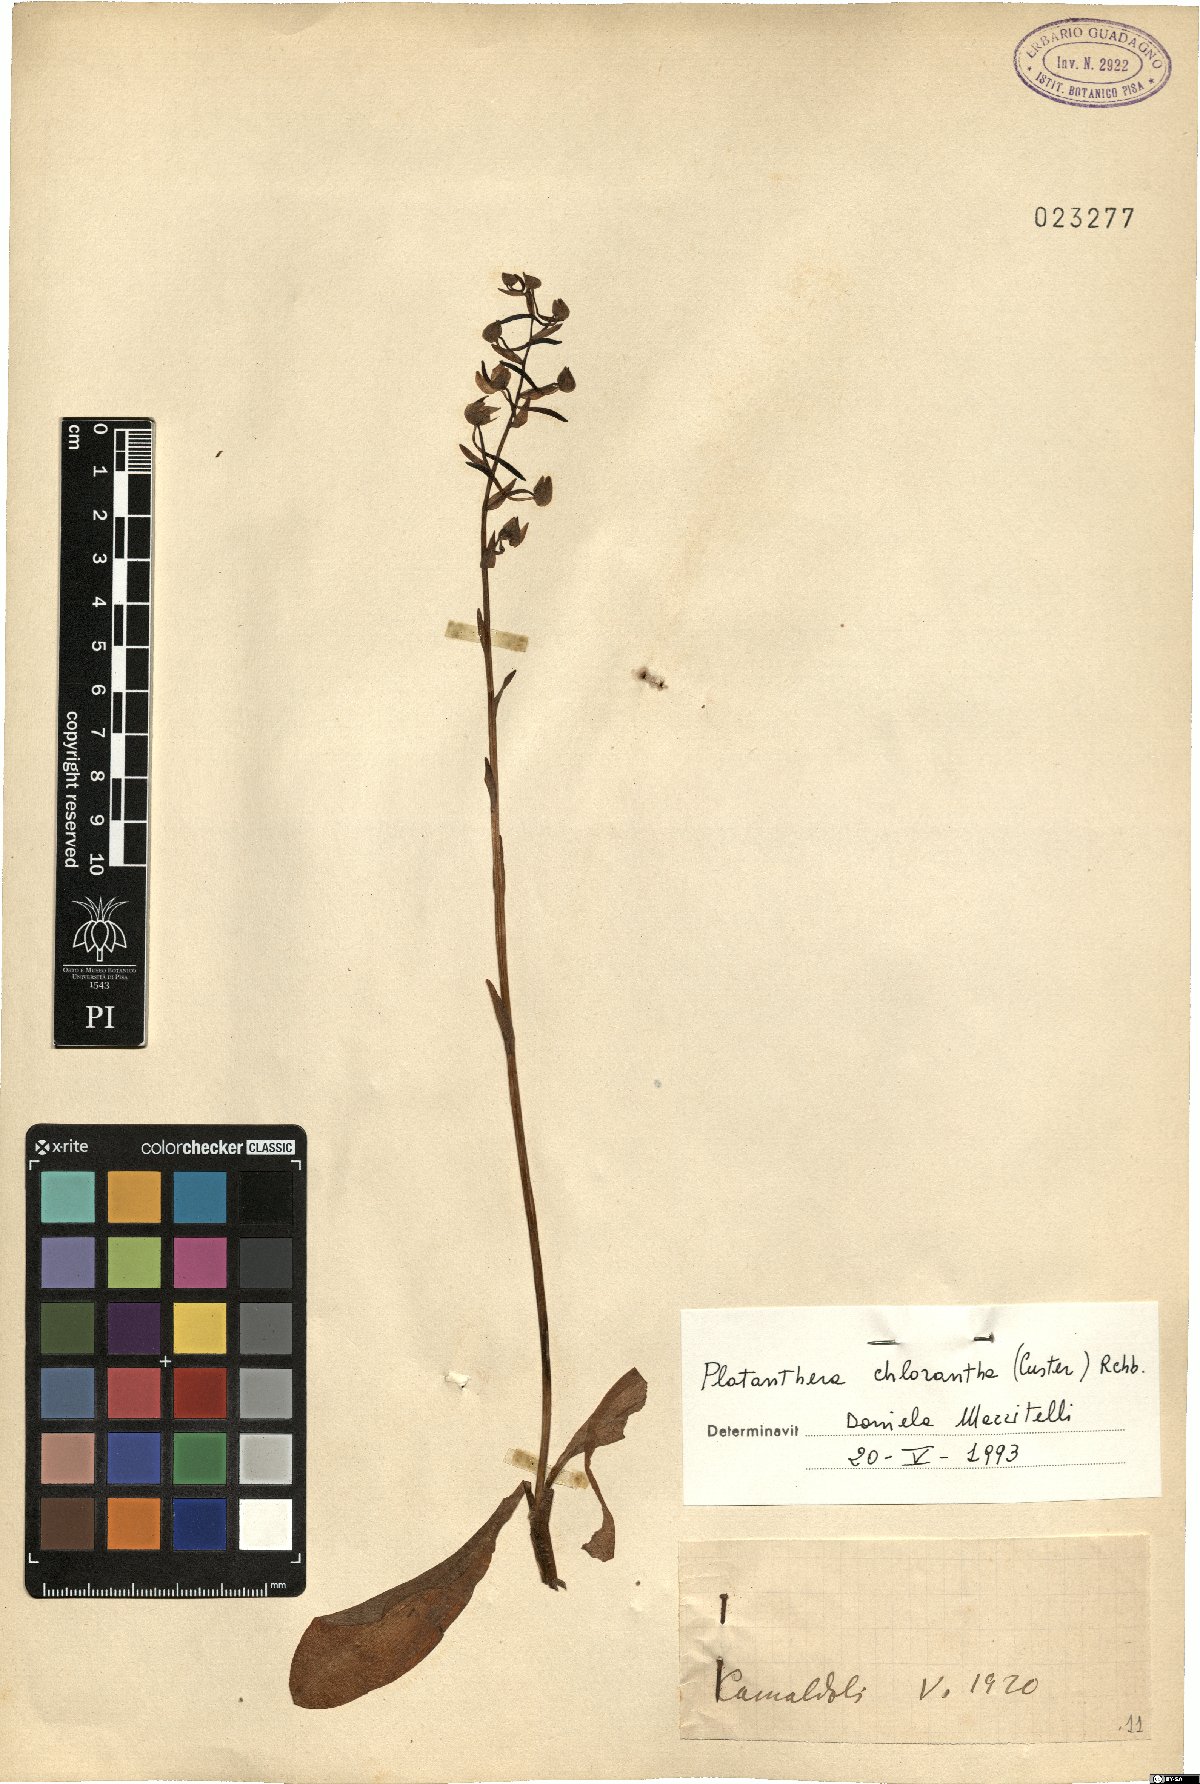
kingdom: Plantae
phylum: Tracheophyta
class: Liliopsida
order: Asparagales
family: Orchidaceae
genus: Platanthera
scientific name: Platanthera chlorantha
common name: Greater butterfly-orchid
